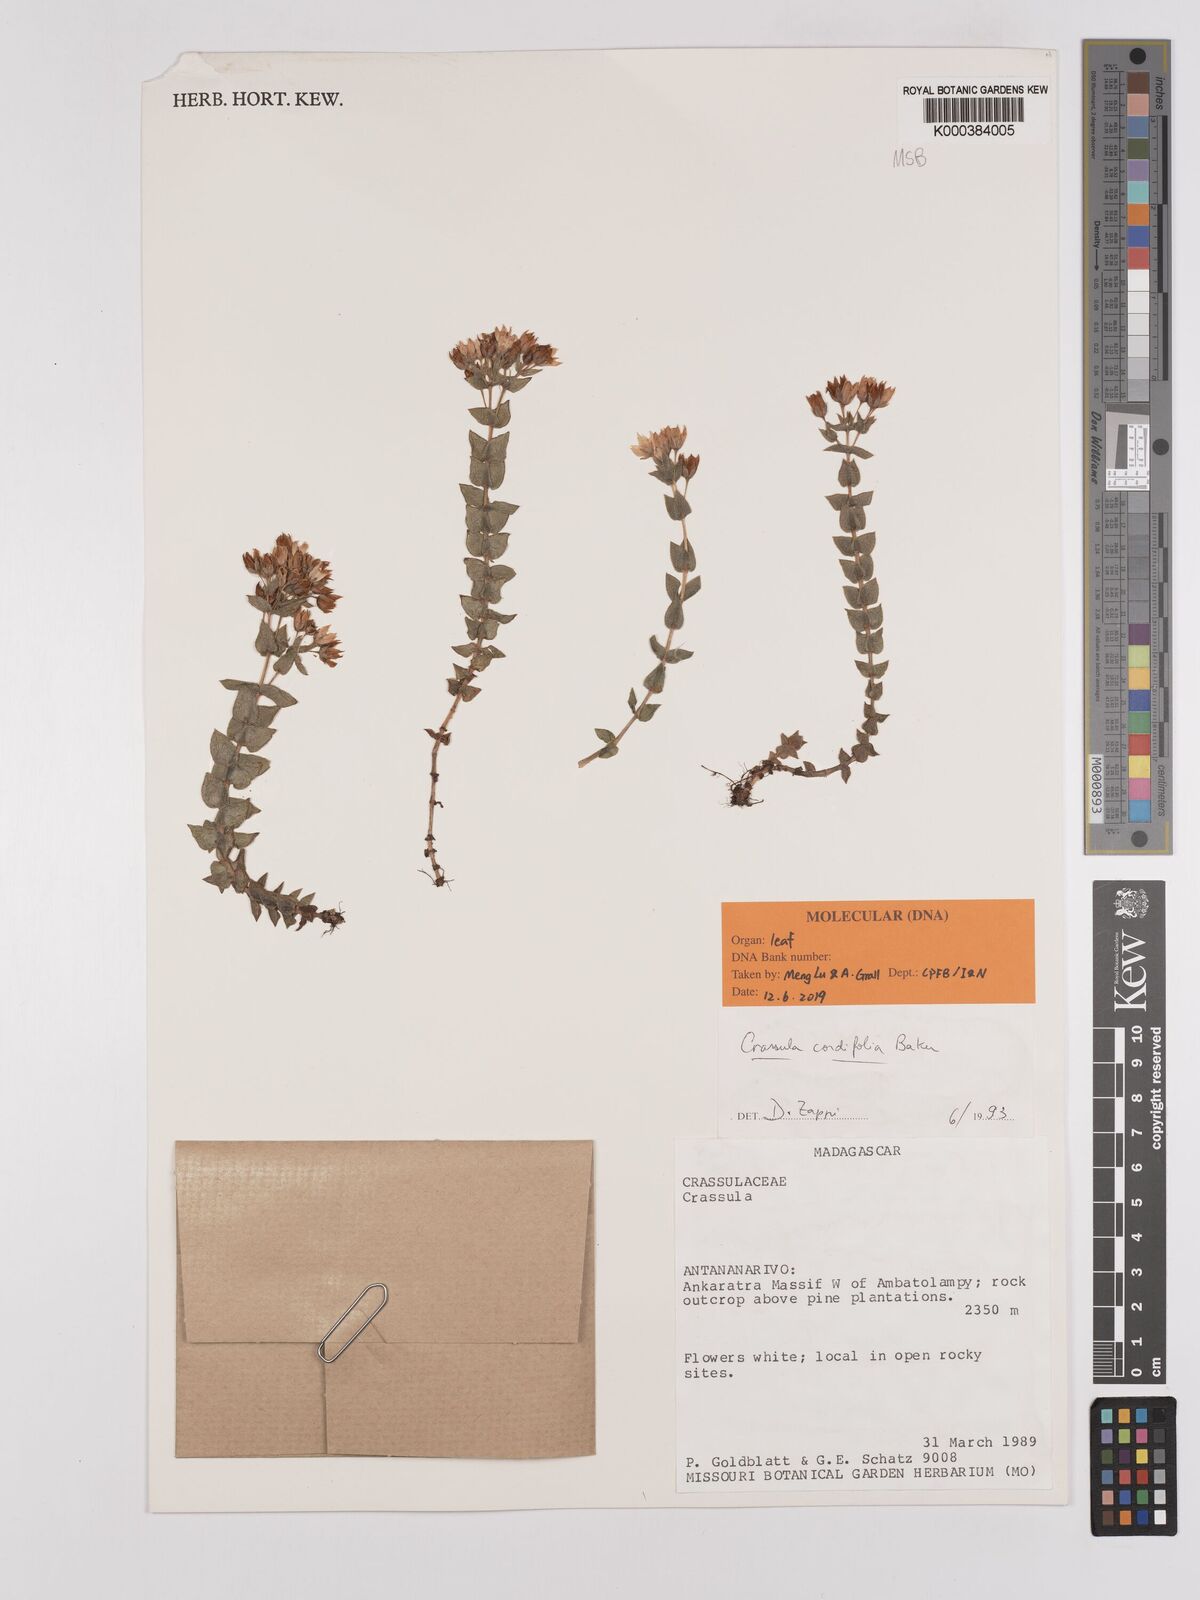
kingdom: Plantae
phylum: Tracheophyta
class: Magnoliopsida
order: Saxifragales
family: Crassulaceae
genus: Crassula
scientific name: Crassula cordifolia
